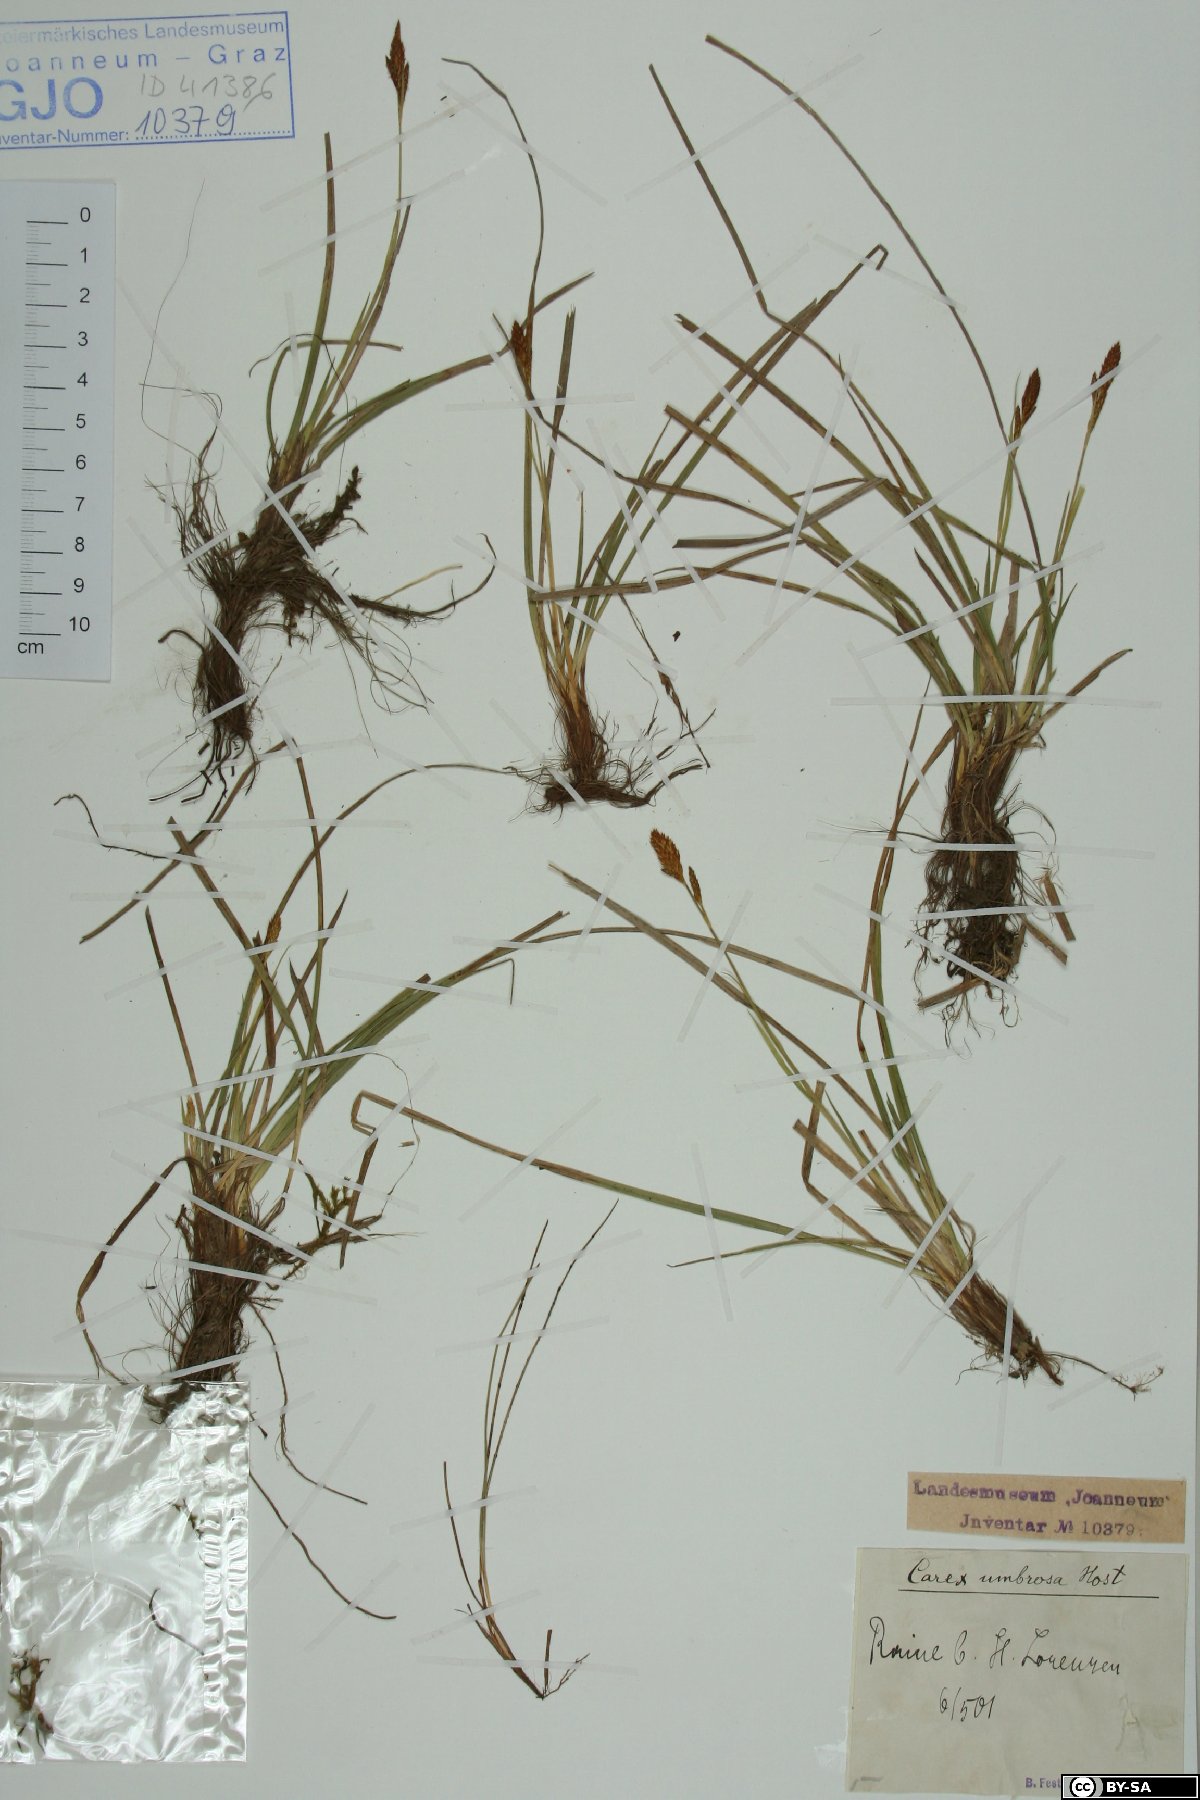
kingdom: Plantae
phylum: Tracheophyta
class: Liliopsida
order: Poales
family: Cyperaceae
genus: Carex
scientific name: Carex umbrosa
